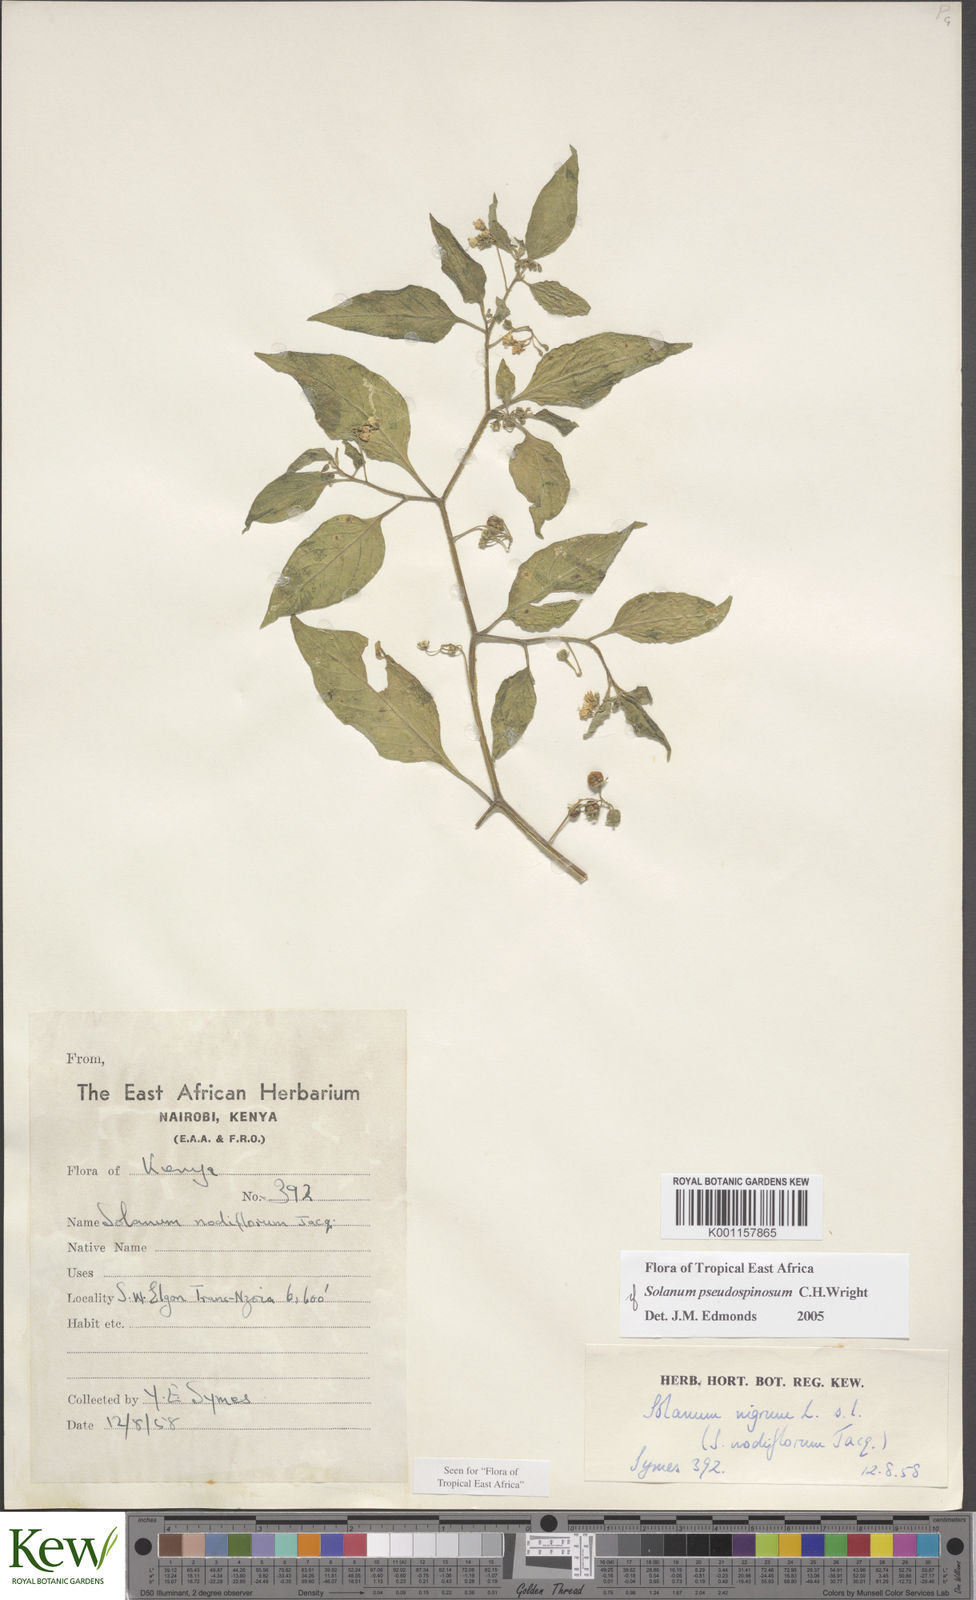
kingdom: Plantae
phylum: Tracheophyta
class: Magnoliopsida
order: Solanales
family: Solanaceae
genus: Solanum
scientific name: Solanum pseudospinosum
